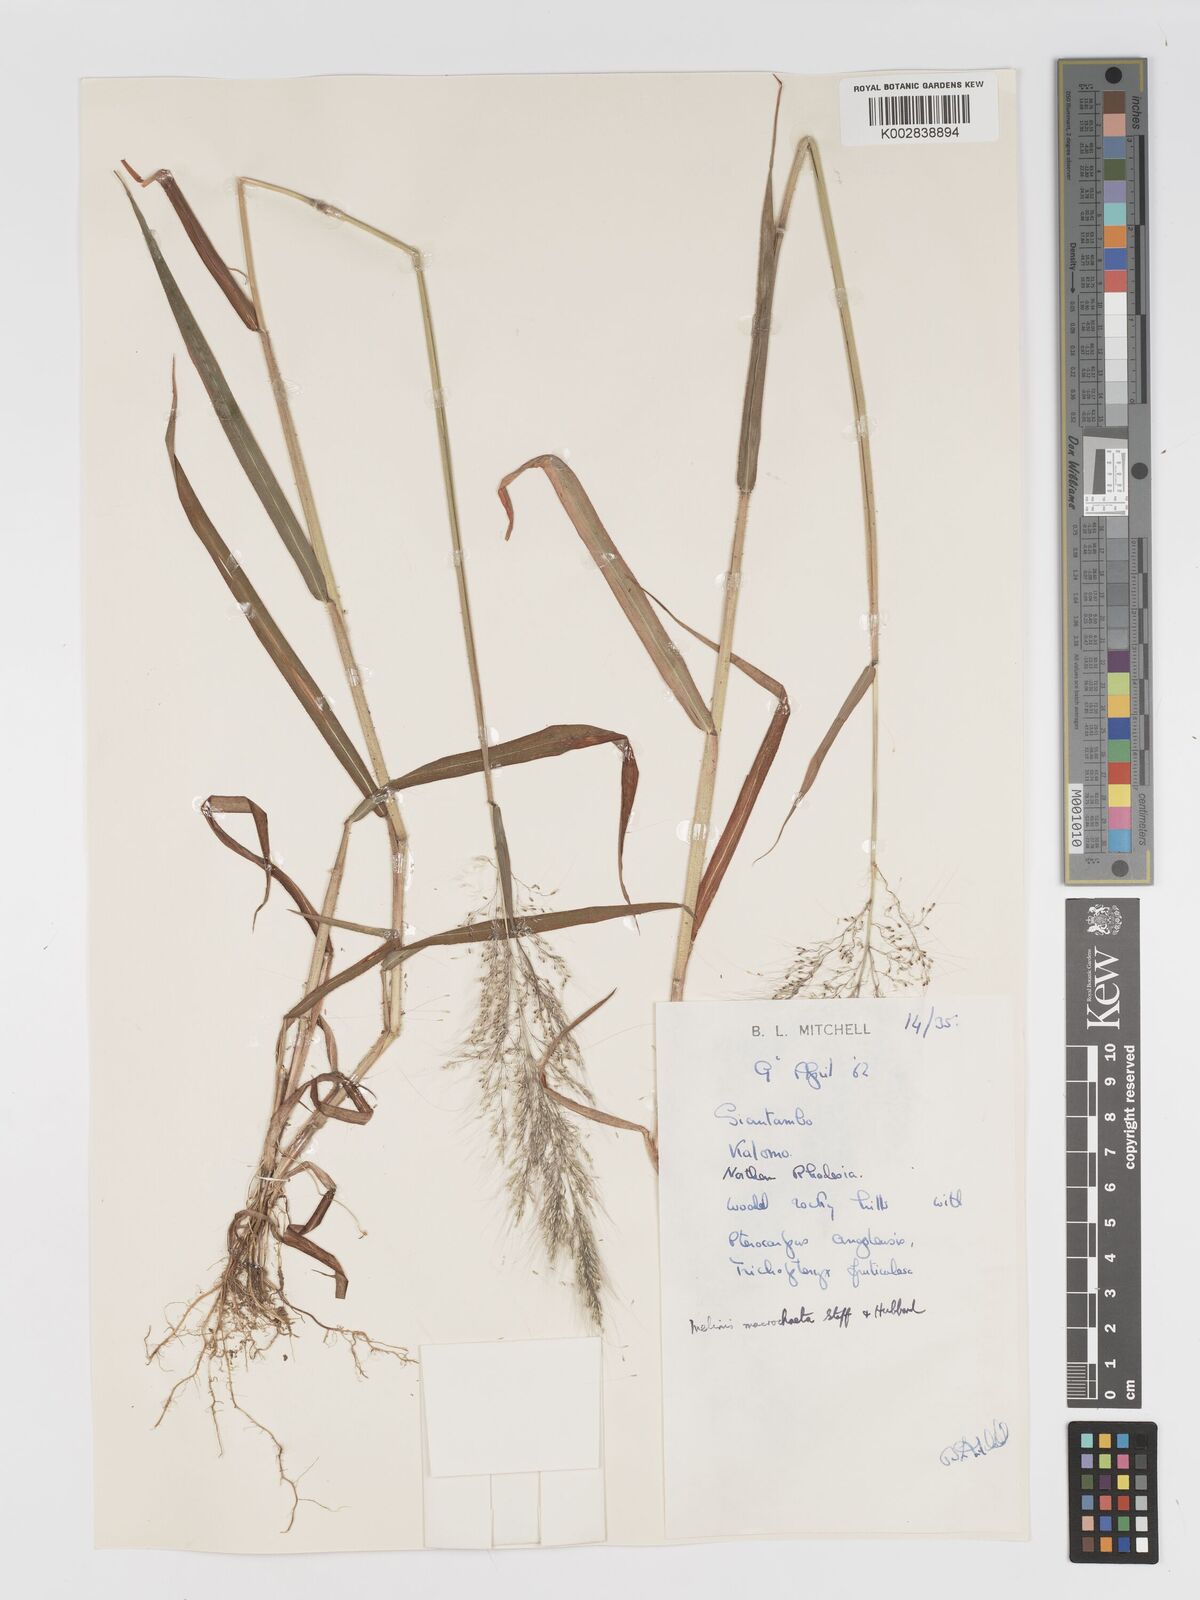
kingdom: Plantae
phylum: Tracheophyta
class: Liliopsida
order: Poales
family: Poaceae
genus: Melinis
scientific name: Melinis macrochaeta
